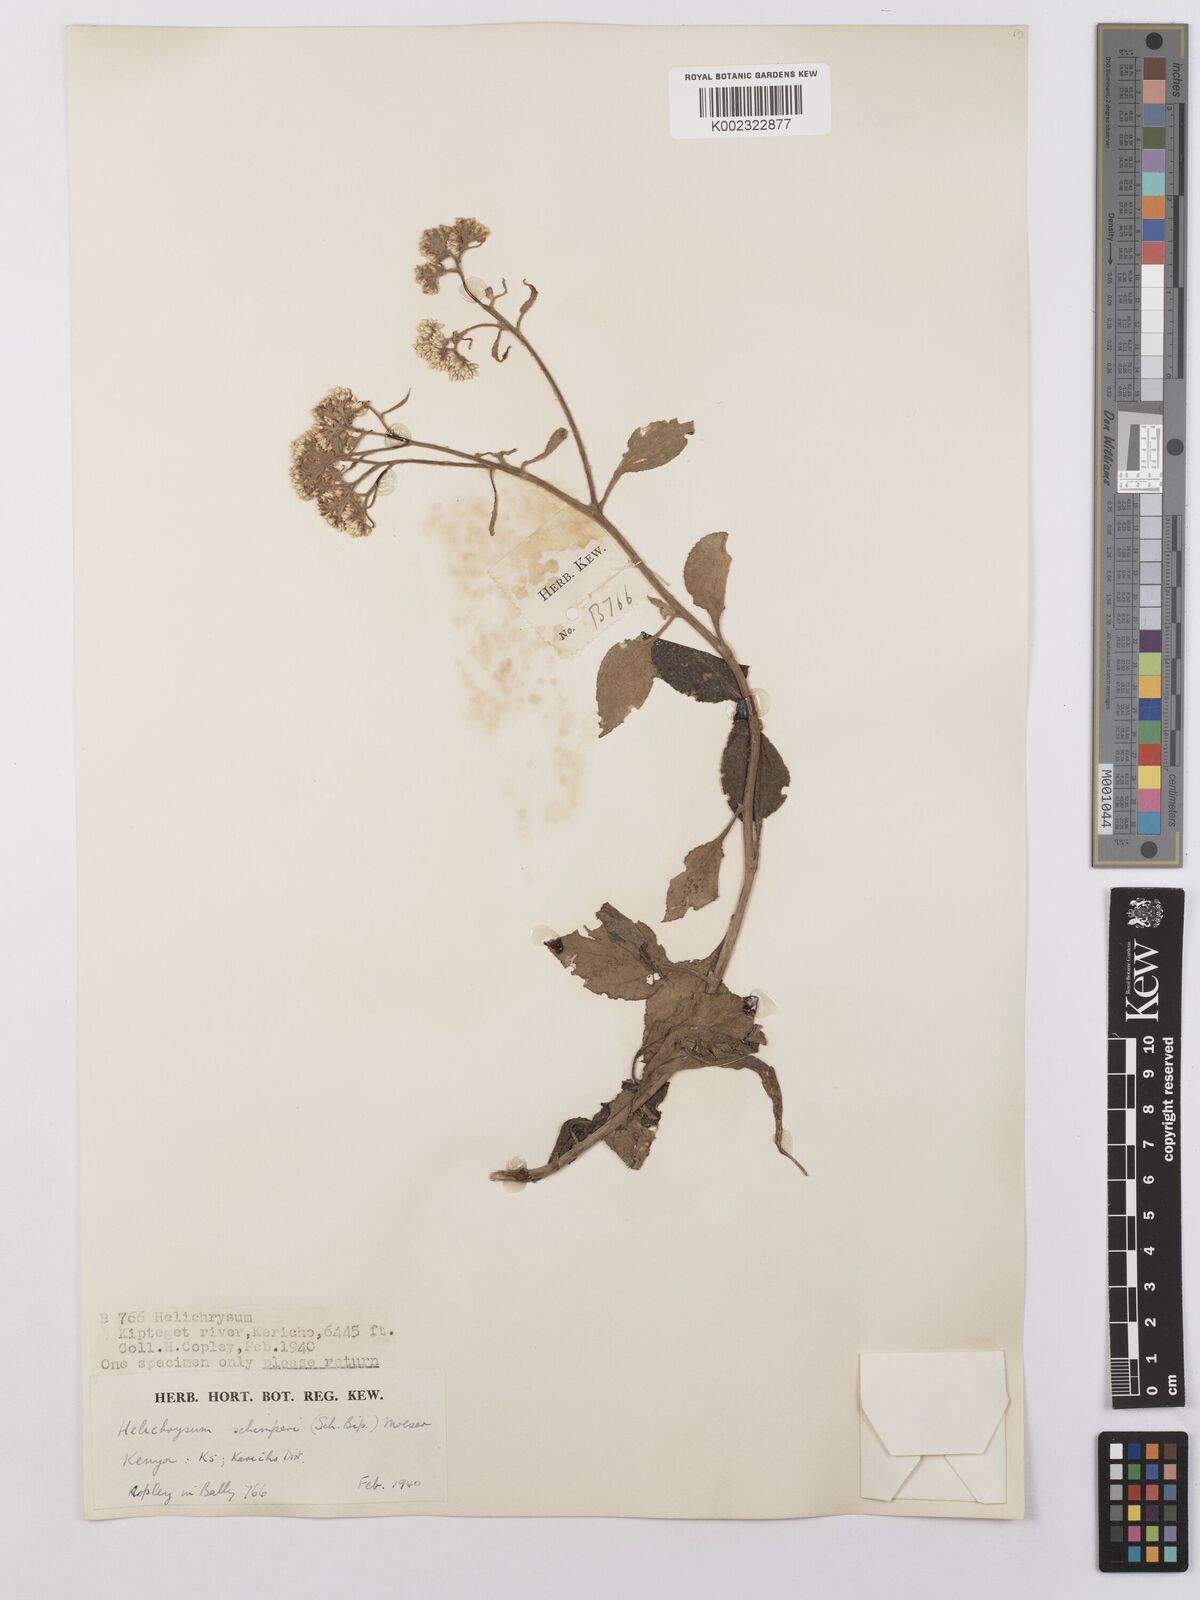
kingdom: Plantae
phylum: Tracheophyta
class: Magnoliopsida
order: Asterales
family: Asteraceae
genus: Helichrysum
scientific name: Helichrysum schimperi
